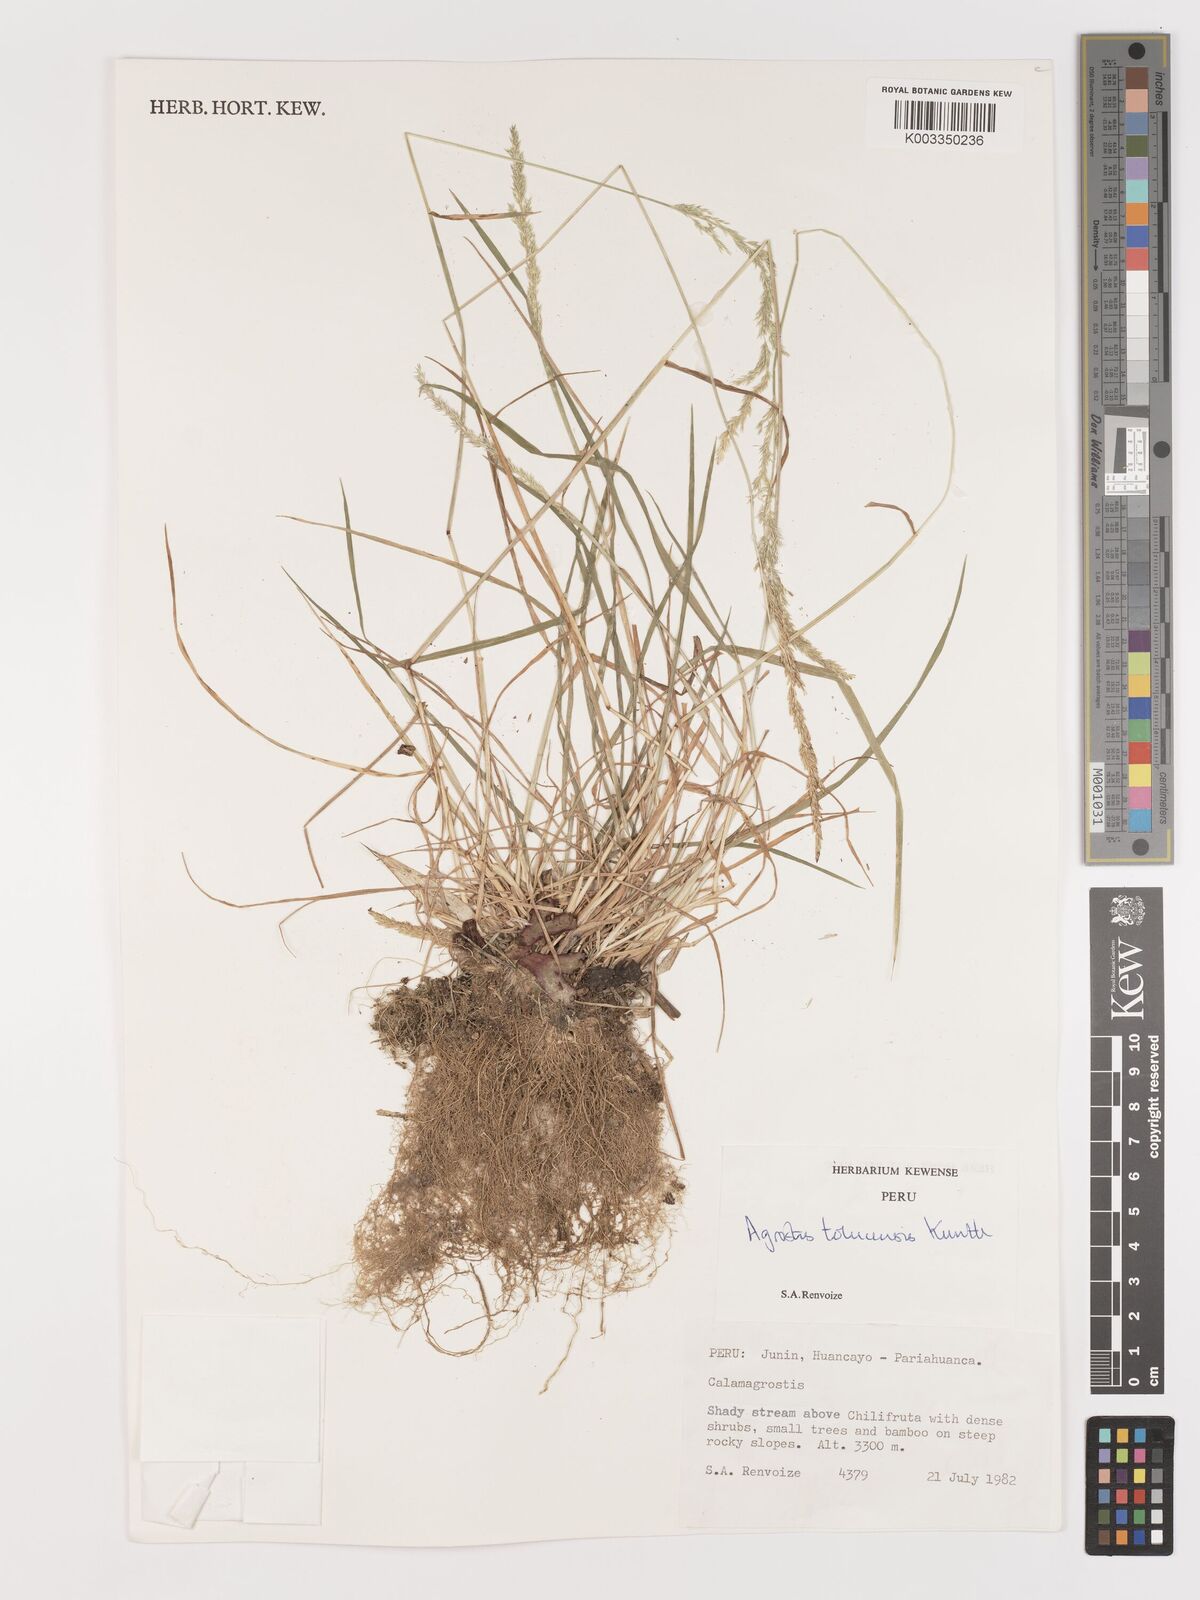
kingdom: Plantae
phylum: Tracheophyta
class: Liliopsida
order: Poales
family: Poaceae
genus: Agrostis
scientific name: Agrostis
